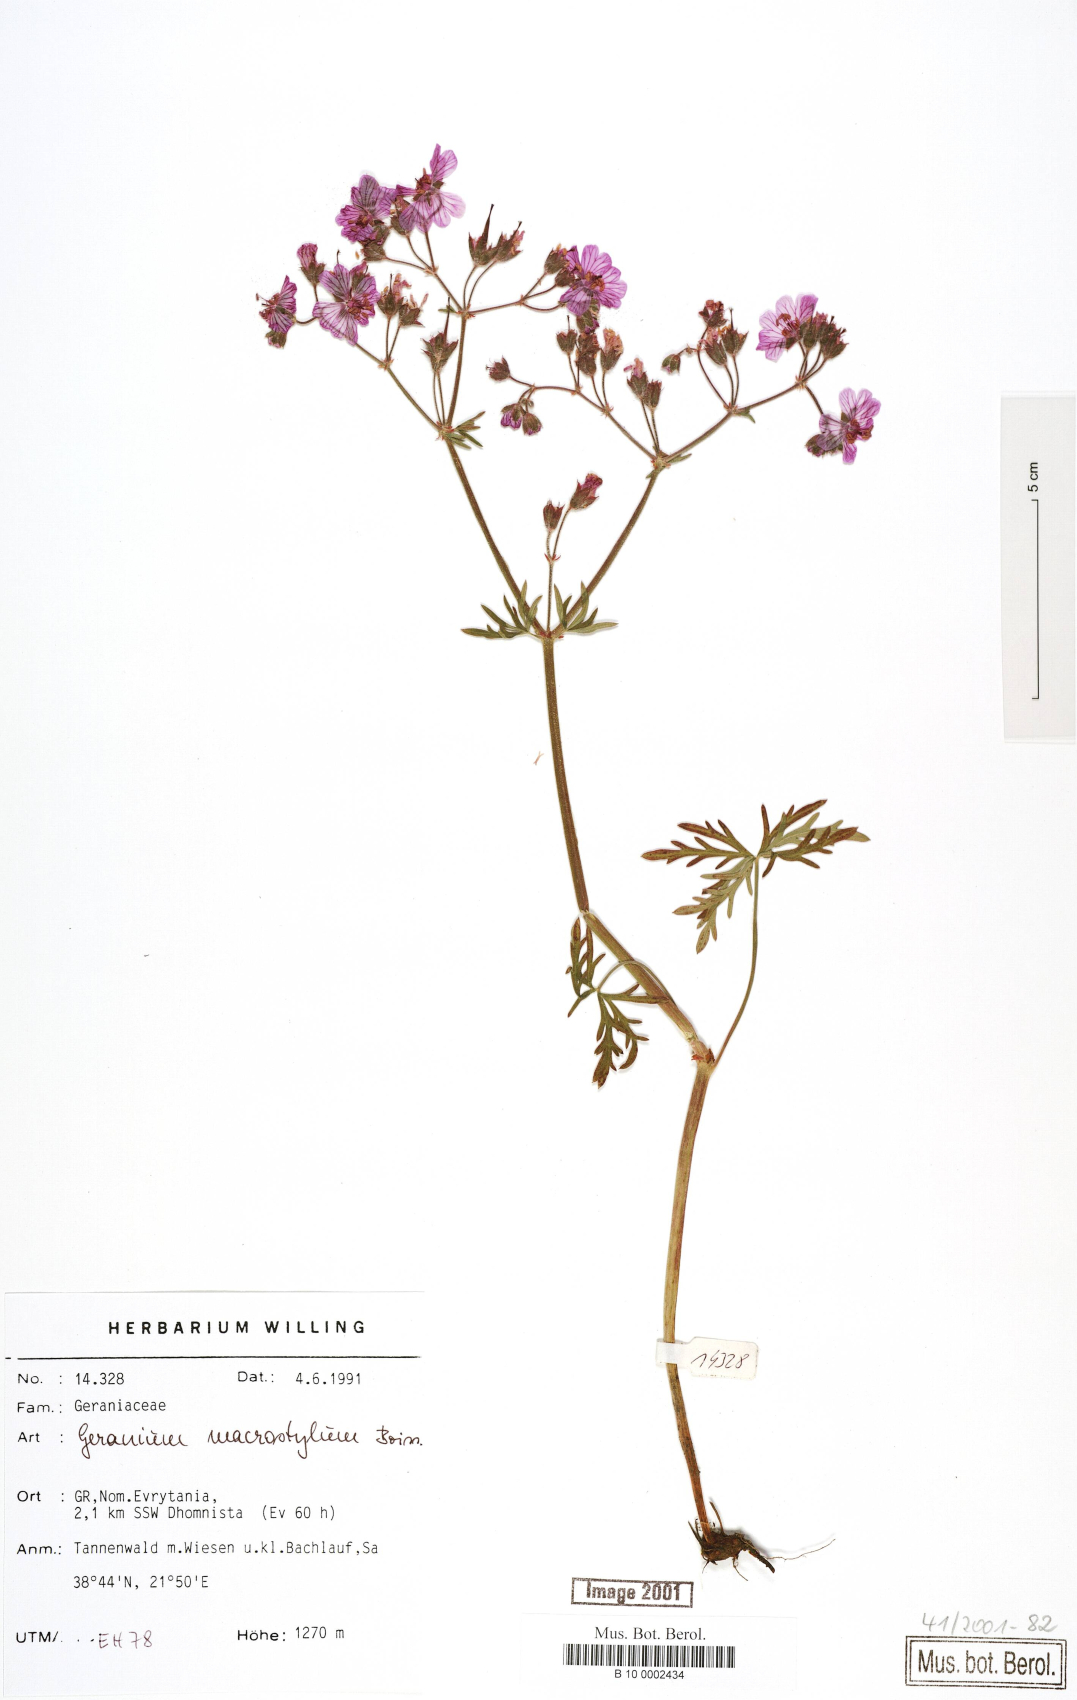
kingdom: Plantae
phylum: Tracheophyta
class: Magnoliopsida
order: Geraniales
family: Geraniaceae
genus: Geranium
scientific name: Geranium macrostylum
